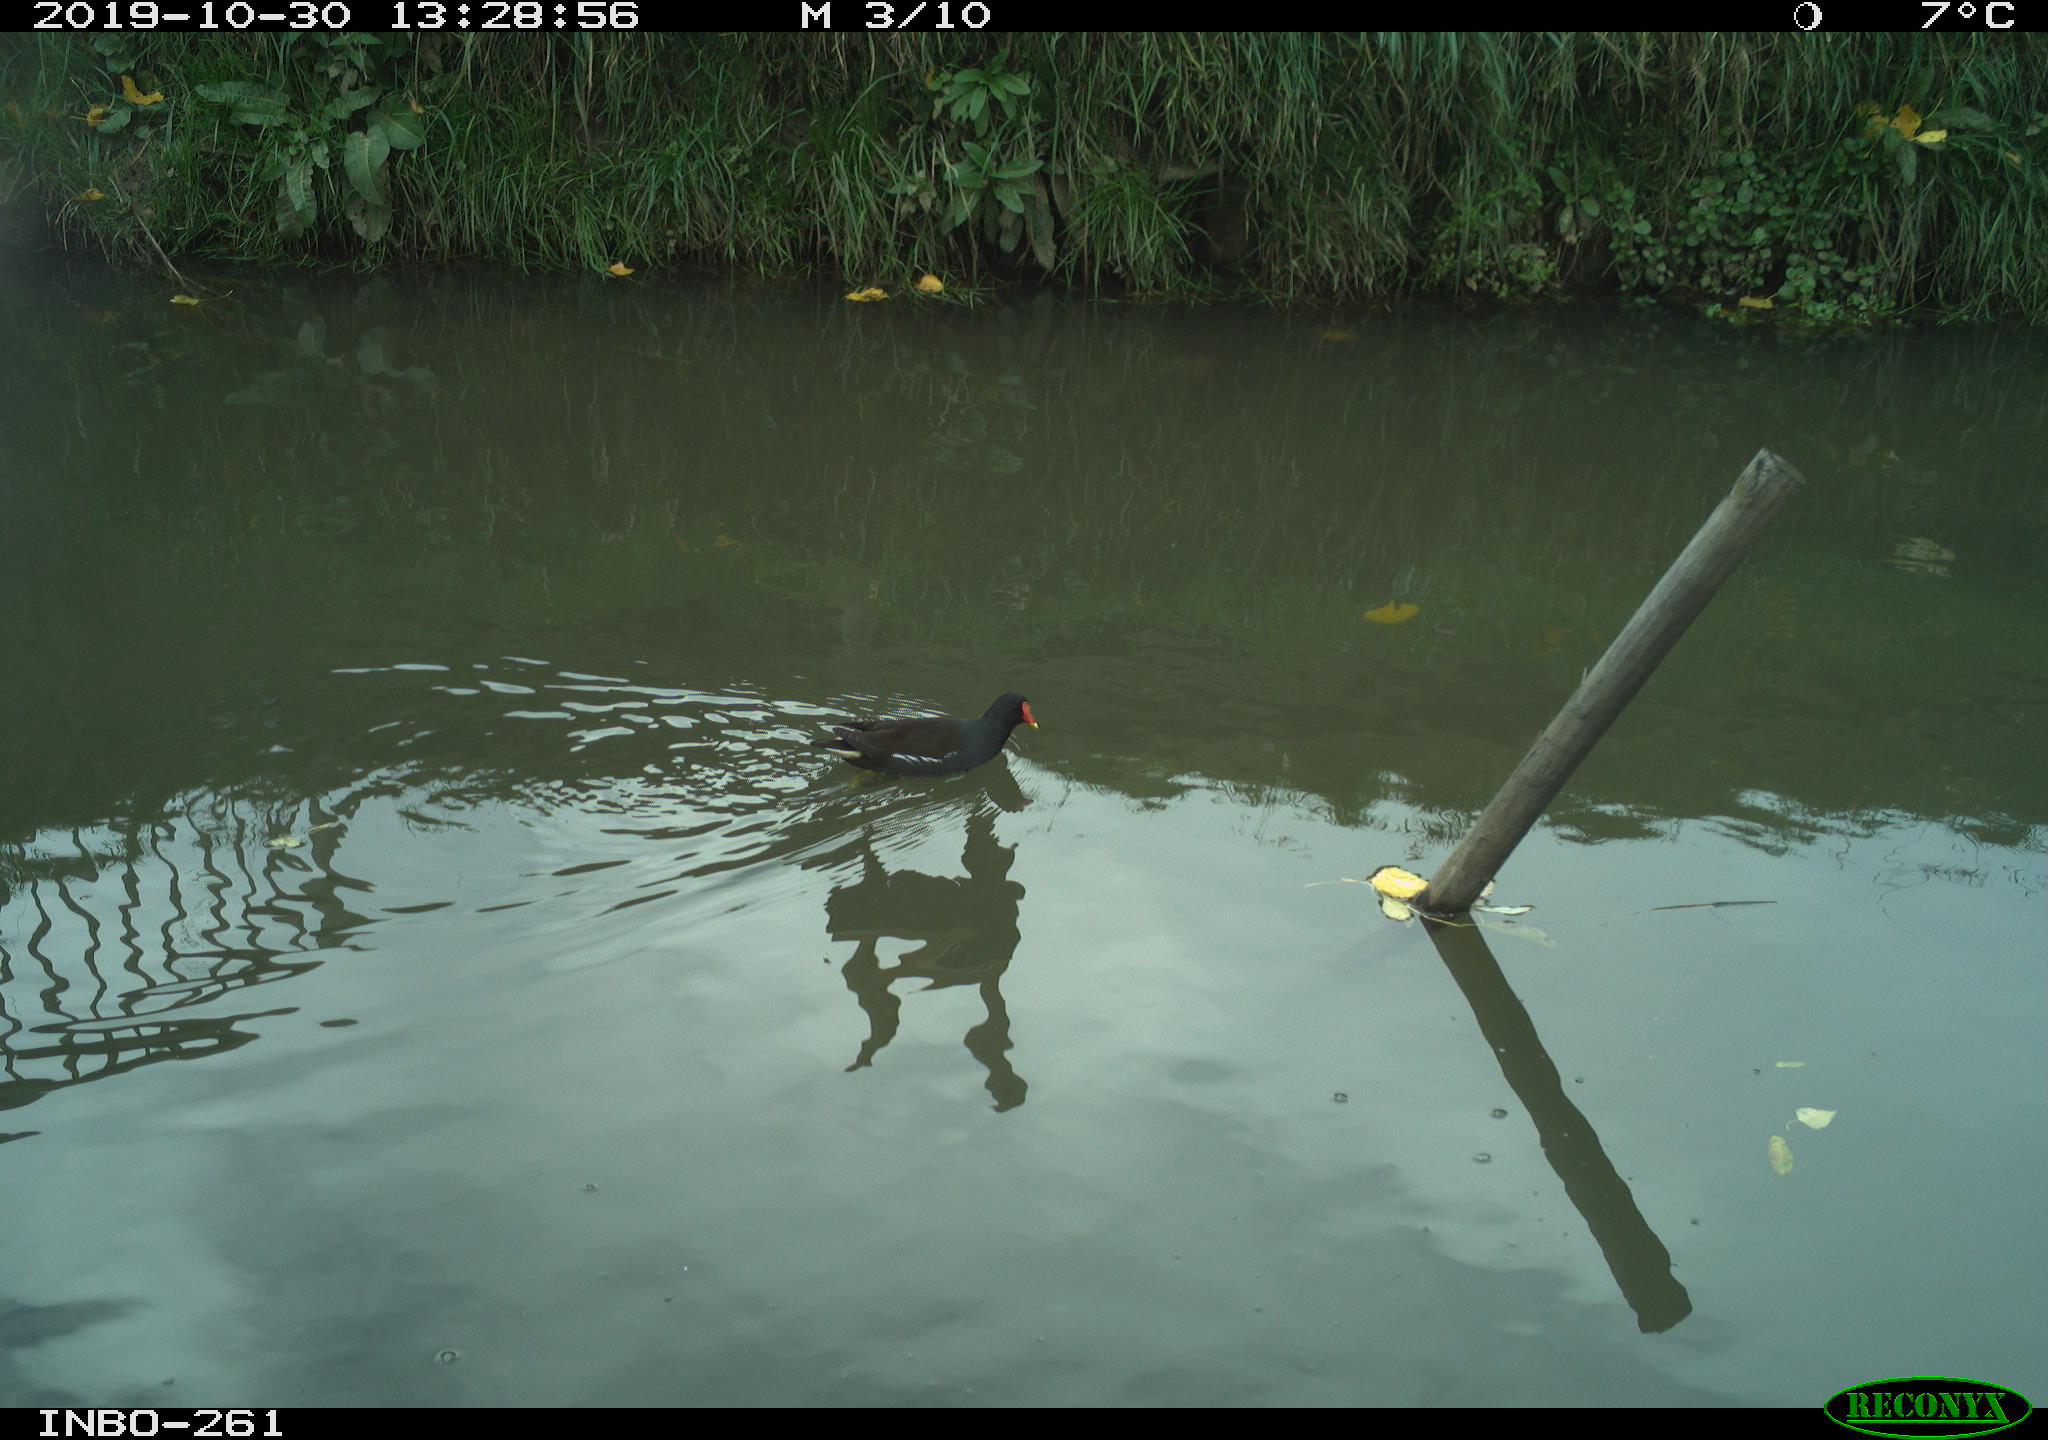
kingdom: Animalia
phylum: Chordata
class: Aves
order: Gruiformes
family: Rallidae
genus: Gallinula
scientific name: Gallinula chloropus
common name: Common moorhen
